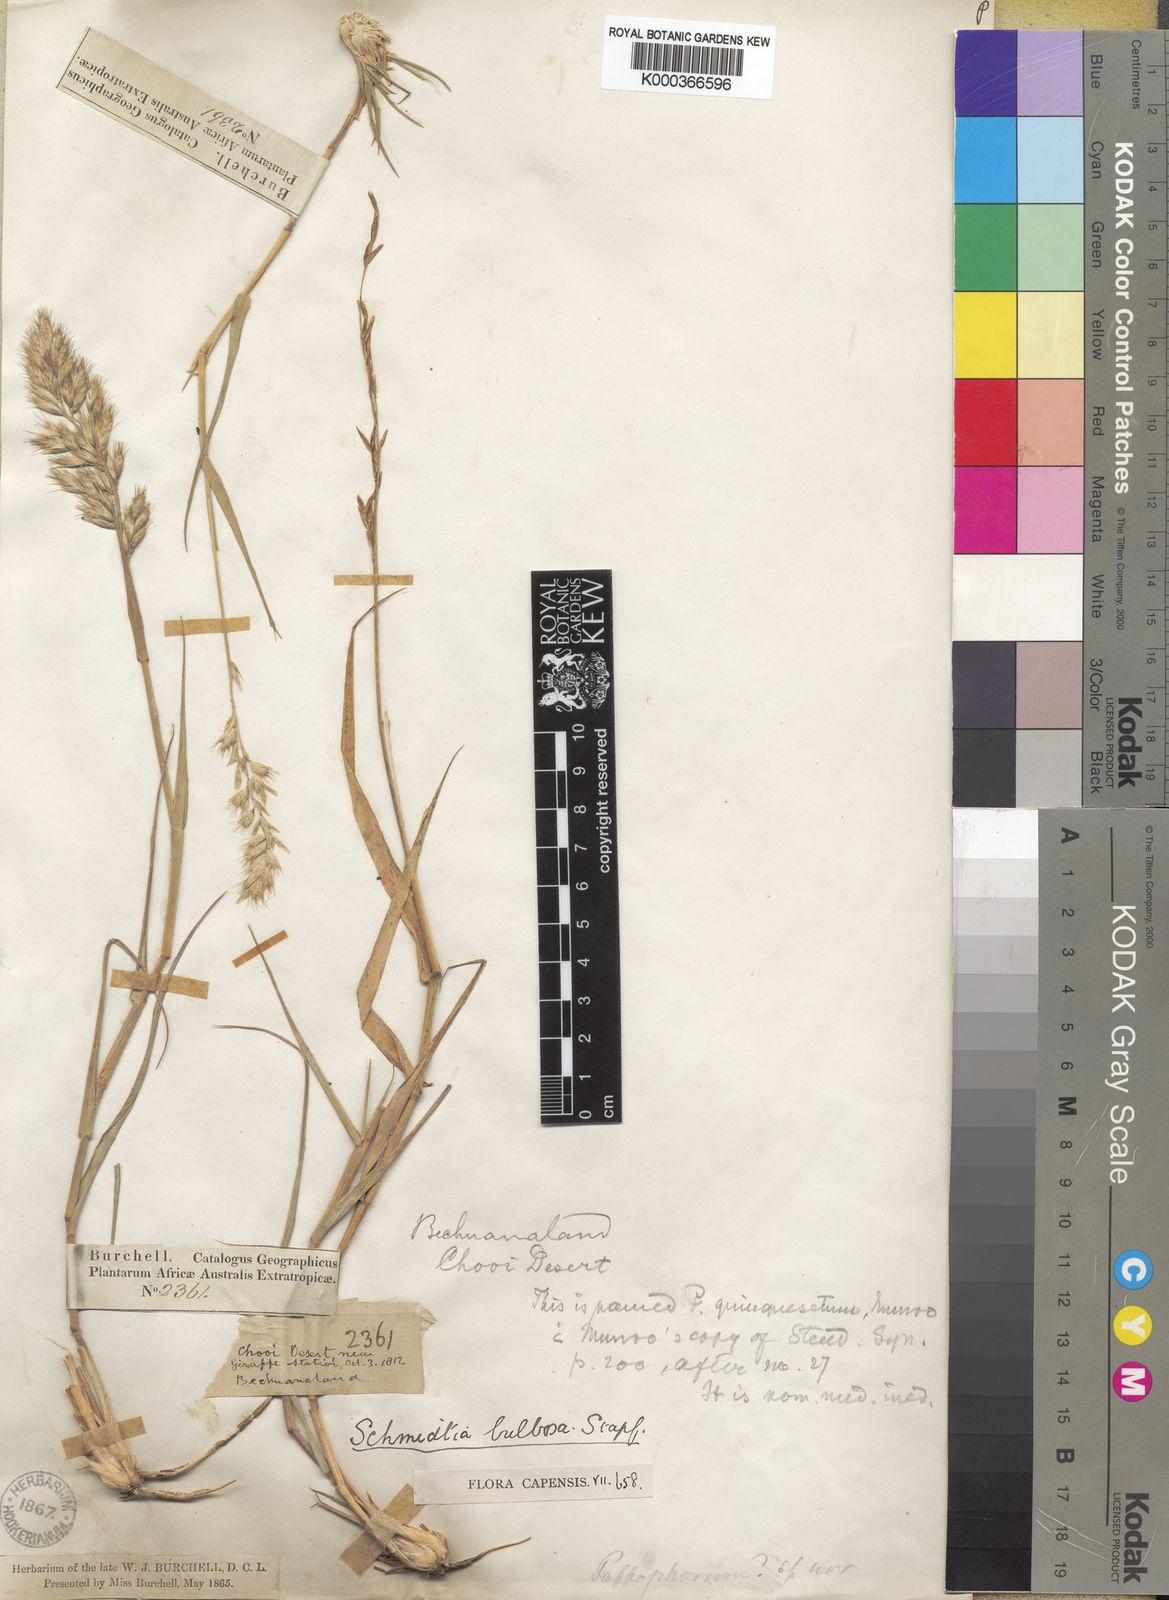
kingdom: Plantae
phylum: Tracheophyta
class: Liliopsida
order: Poales
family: Poaceae
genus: Schmidtia
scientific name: Schmidtia pappophoroides
